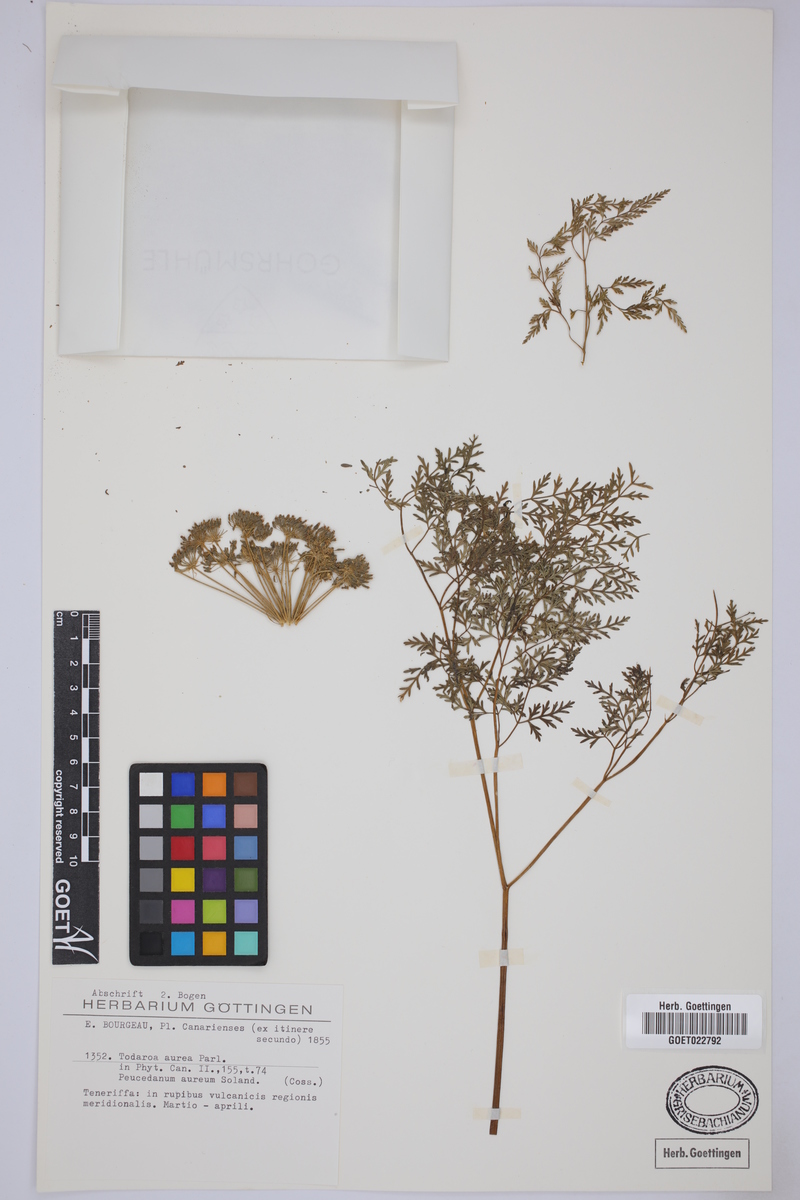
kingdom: Plantae
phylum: Tracheophyta
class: Magnoliopsida
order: Apiales
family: Apiaceae
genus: Todaroa
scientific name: Todaroa aurea
